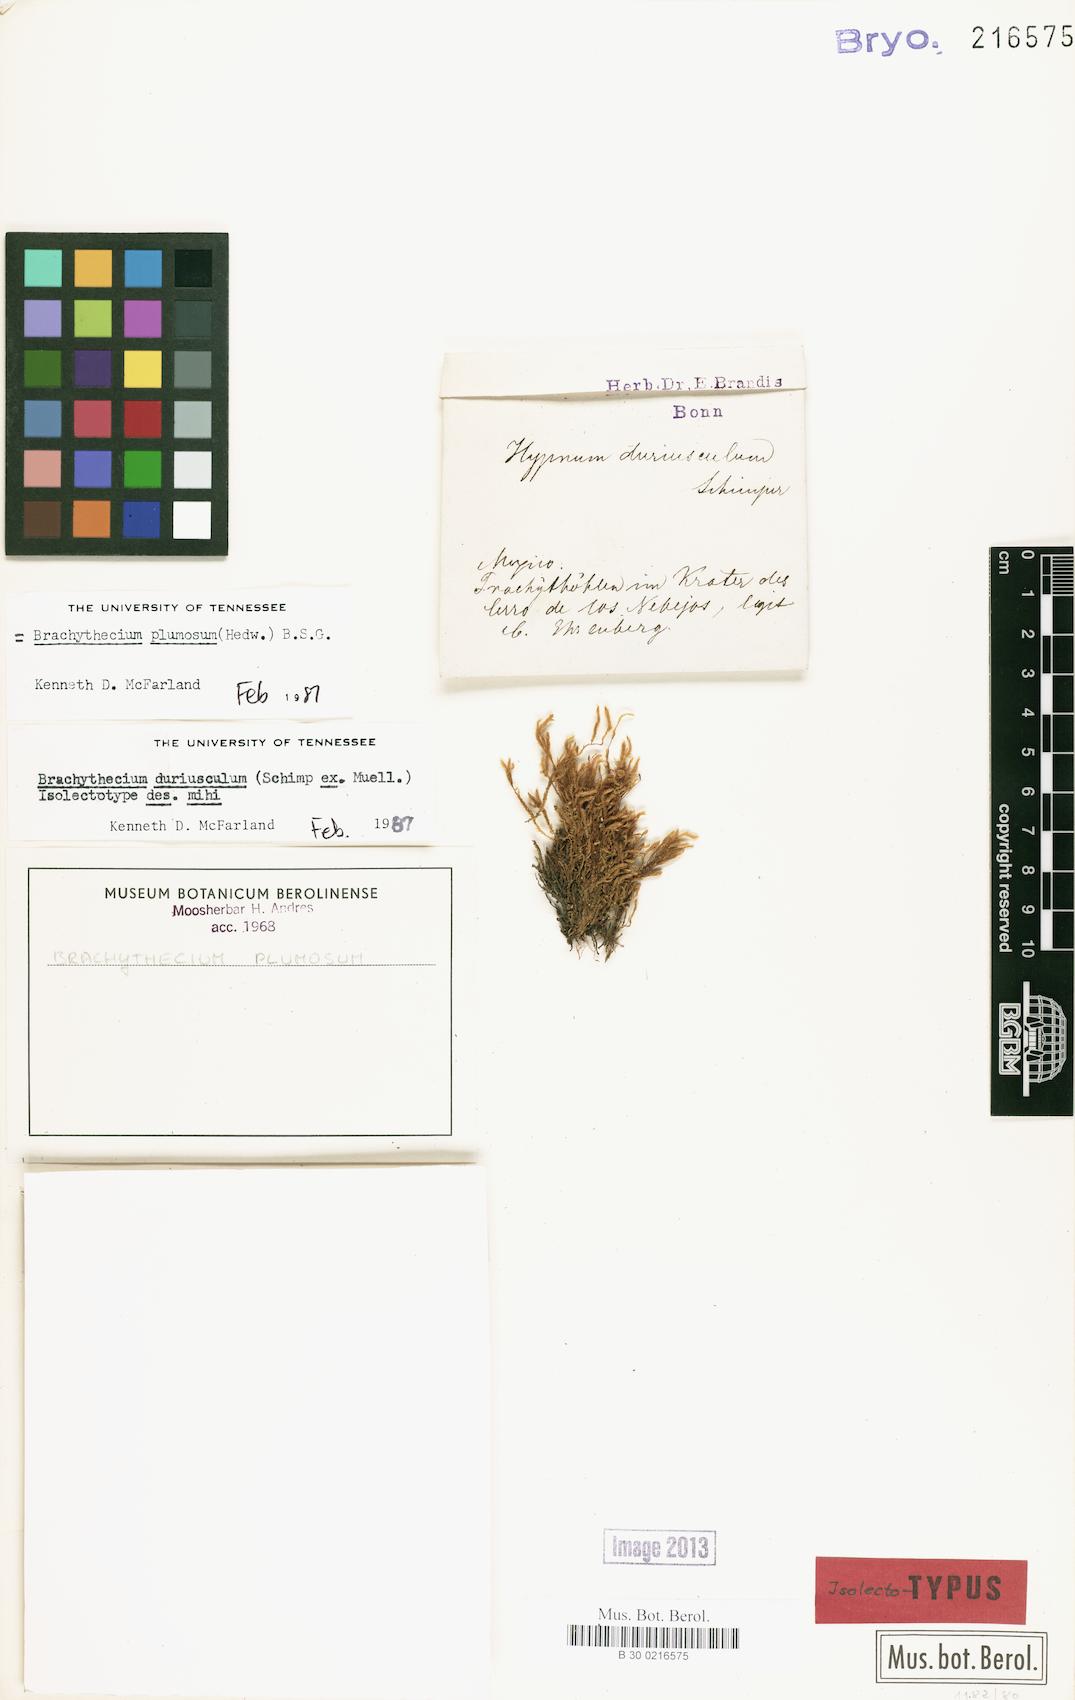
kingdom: Plantae
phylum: Bryophyta
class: Bryopsida
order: Hypnales
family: Brachytheciaceae
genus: Sciuro-hypnum
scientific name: Sciuro-hypnum plumosum
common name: Rusty feather-moss
